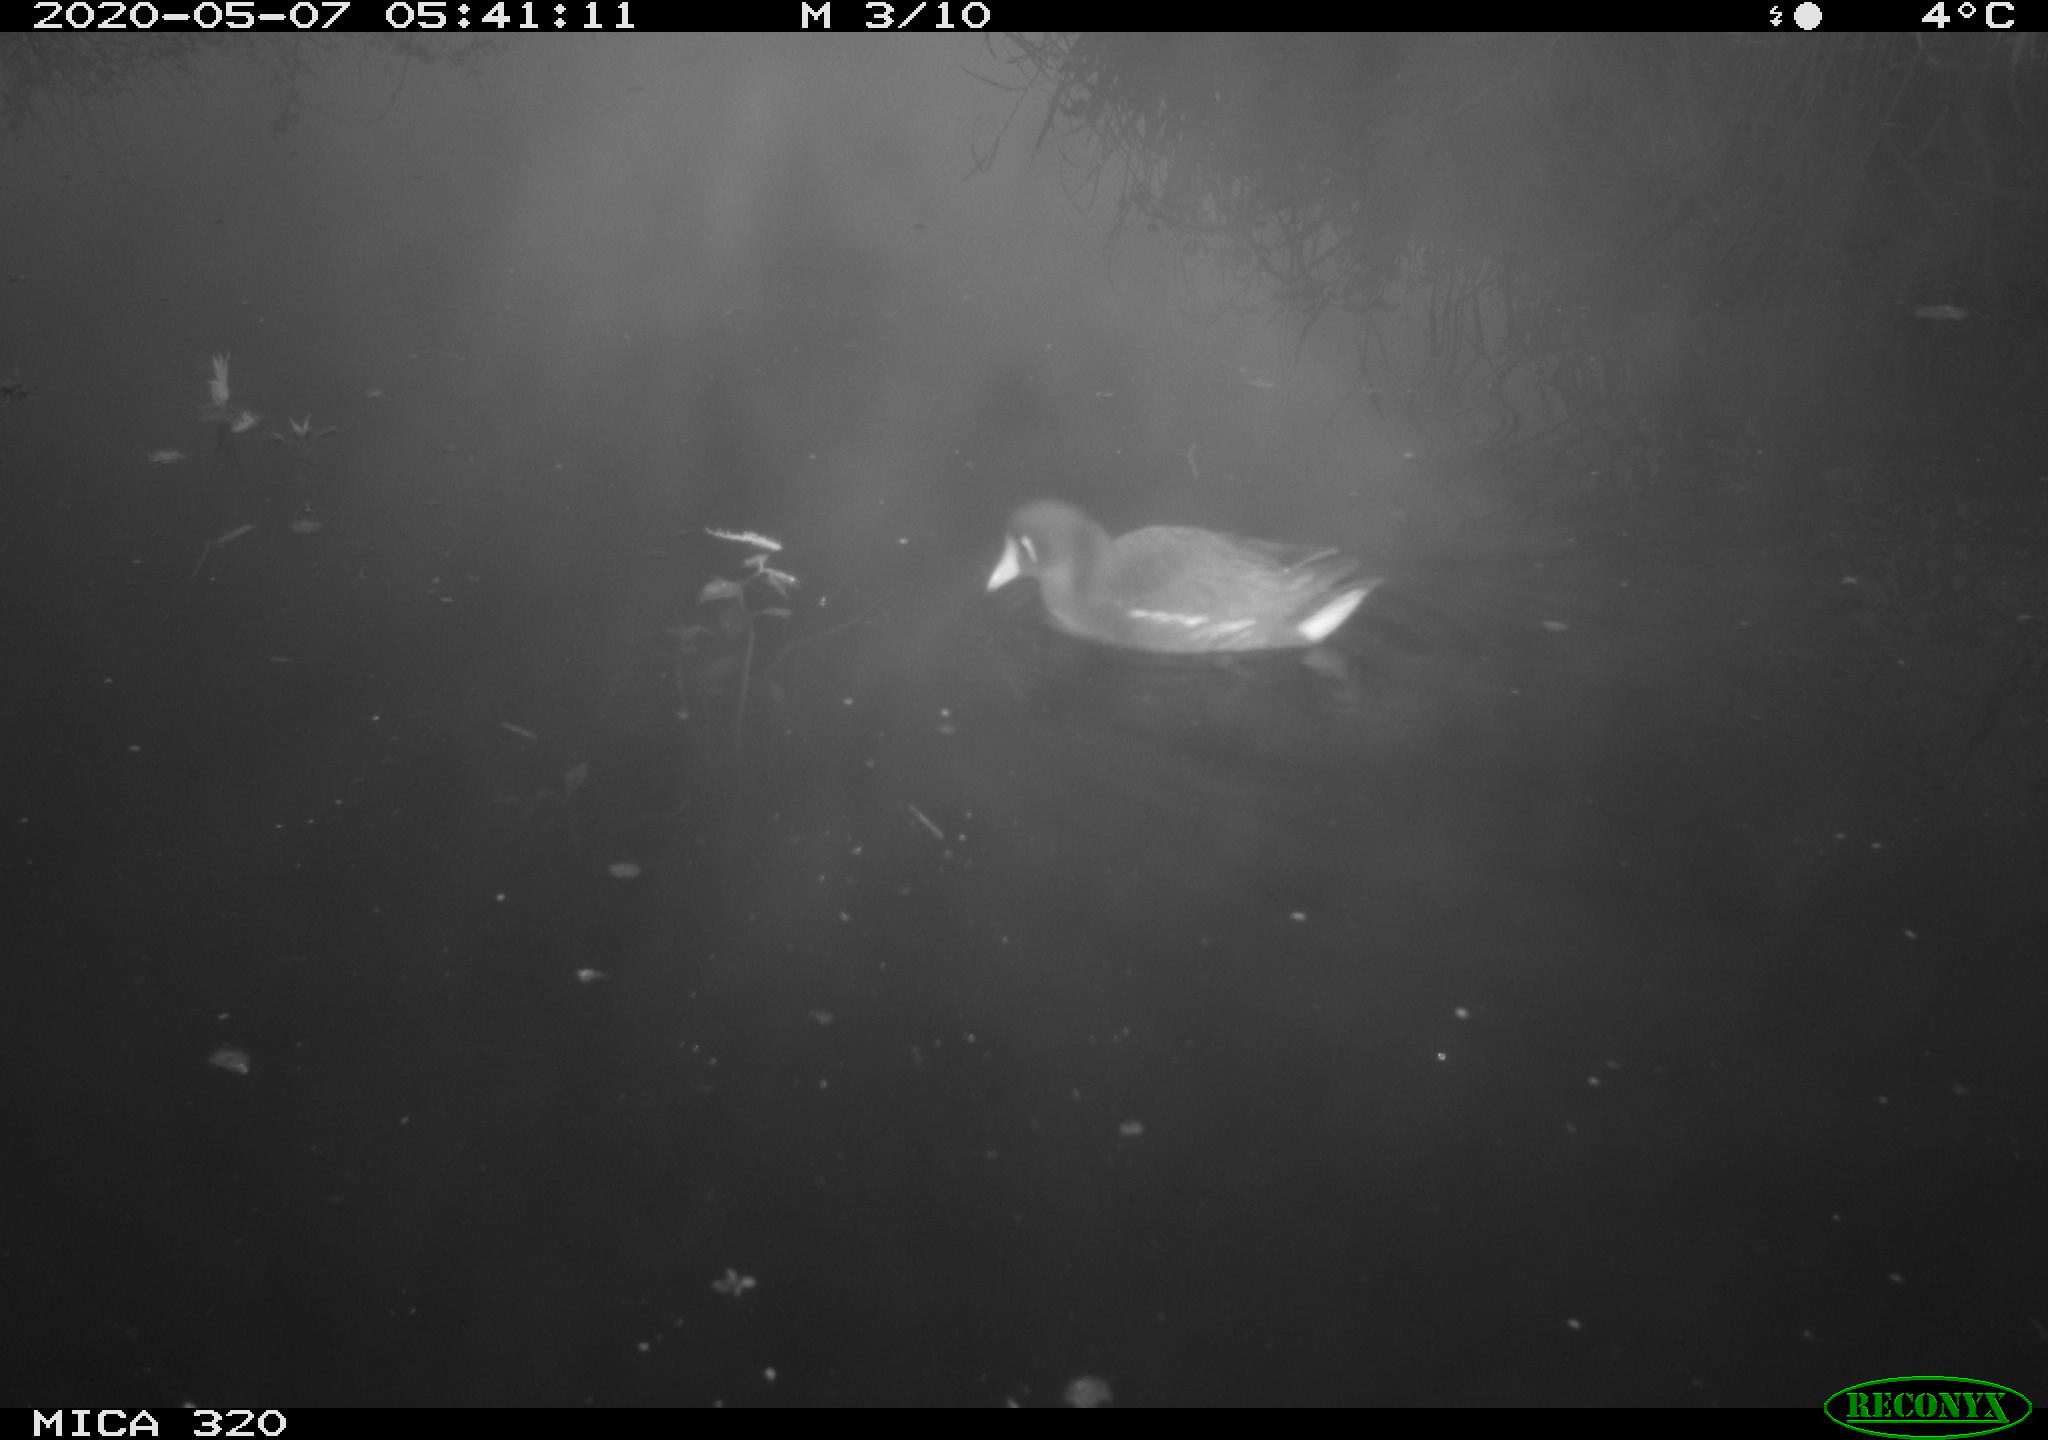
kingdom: Animalia
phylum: Chordata
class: Aves
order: Gruiformes
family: Rallidae
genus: Gallinula
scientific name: Gallinula chloropus
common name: Common moorhen
